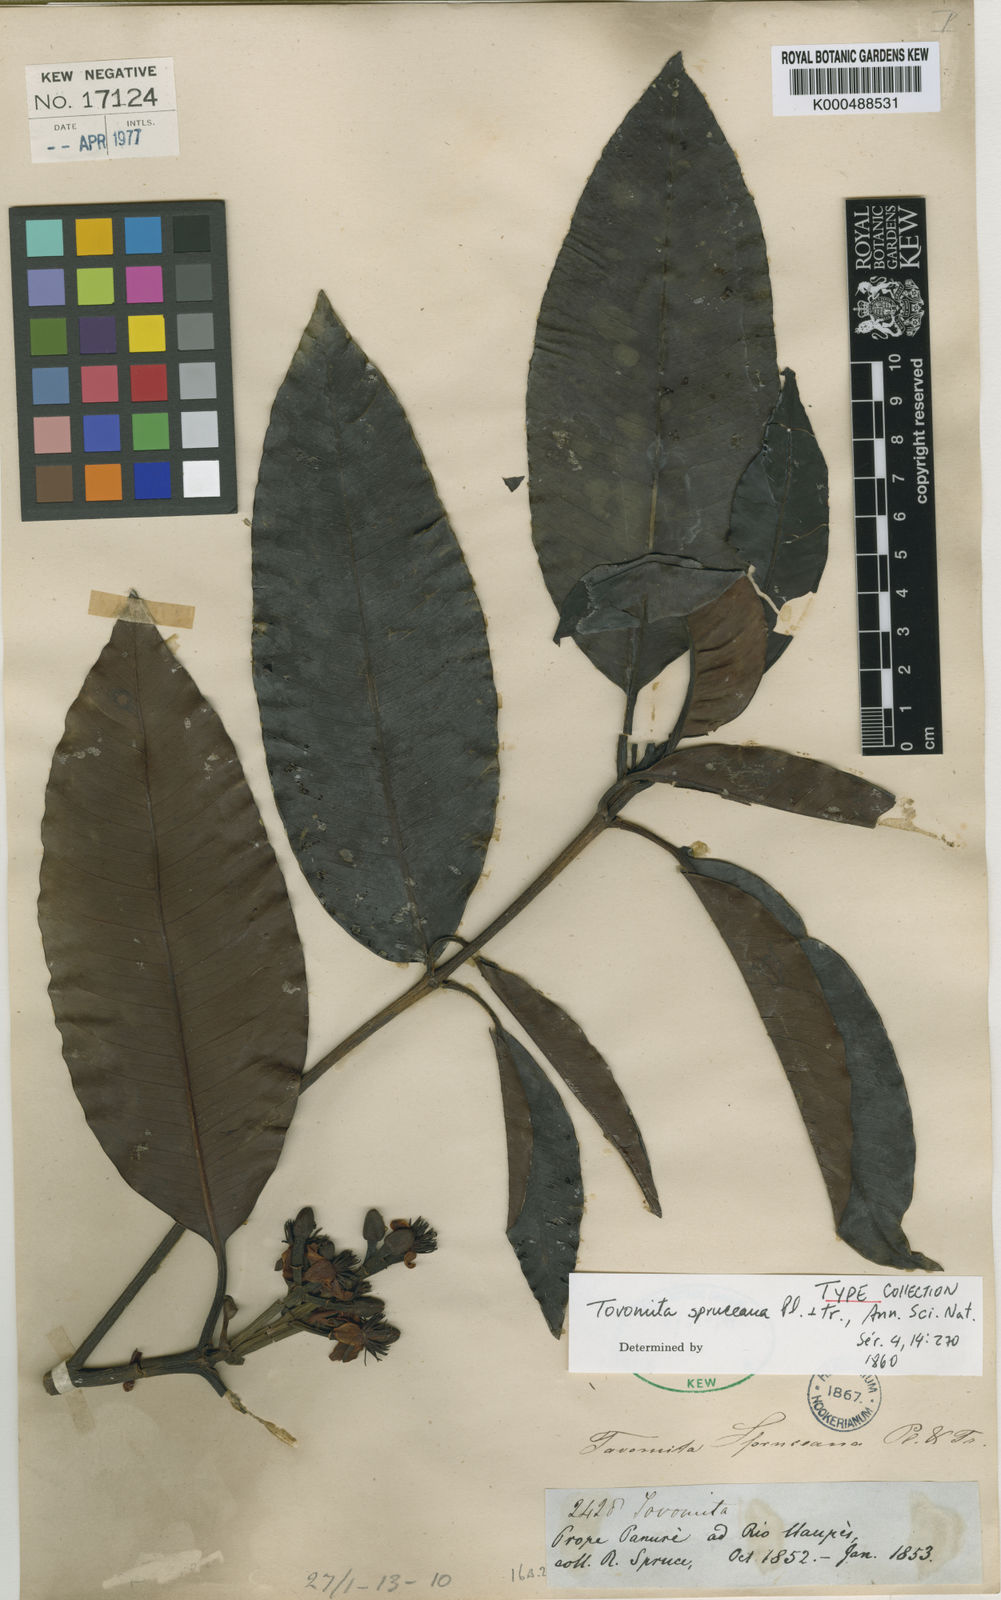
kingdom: Plantae
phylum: Tracheophyta
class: Magnoliopsida
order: Malpighiales
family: Clusiaceae
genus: Tovomita
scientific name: Tovomita spruceana
